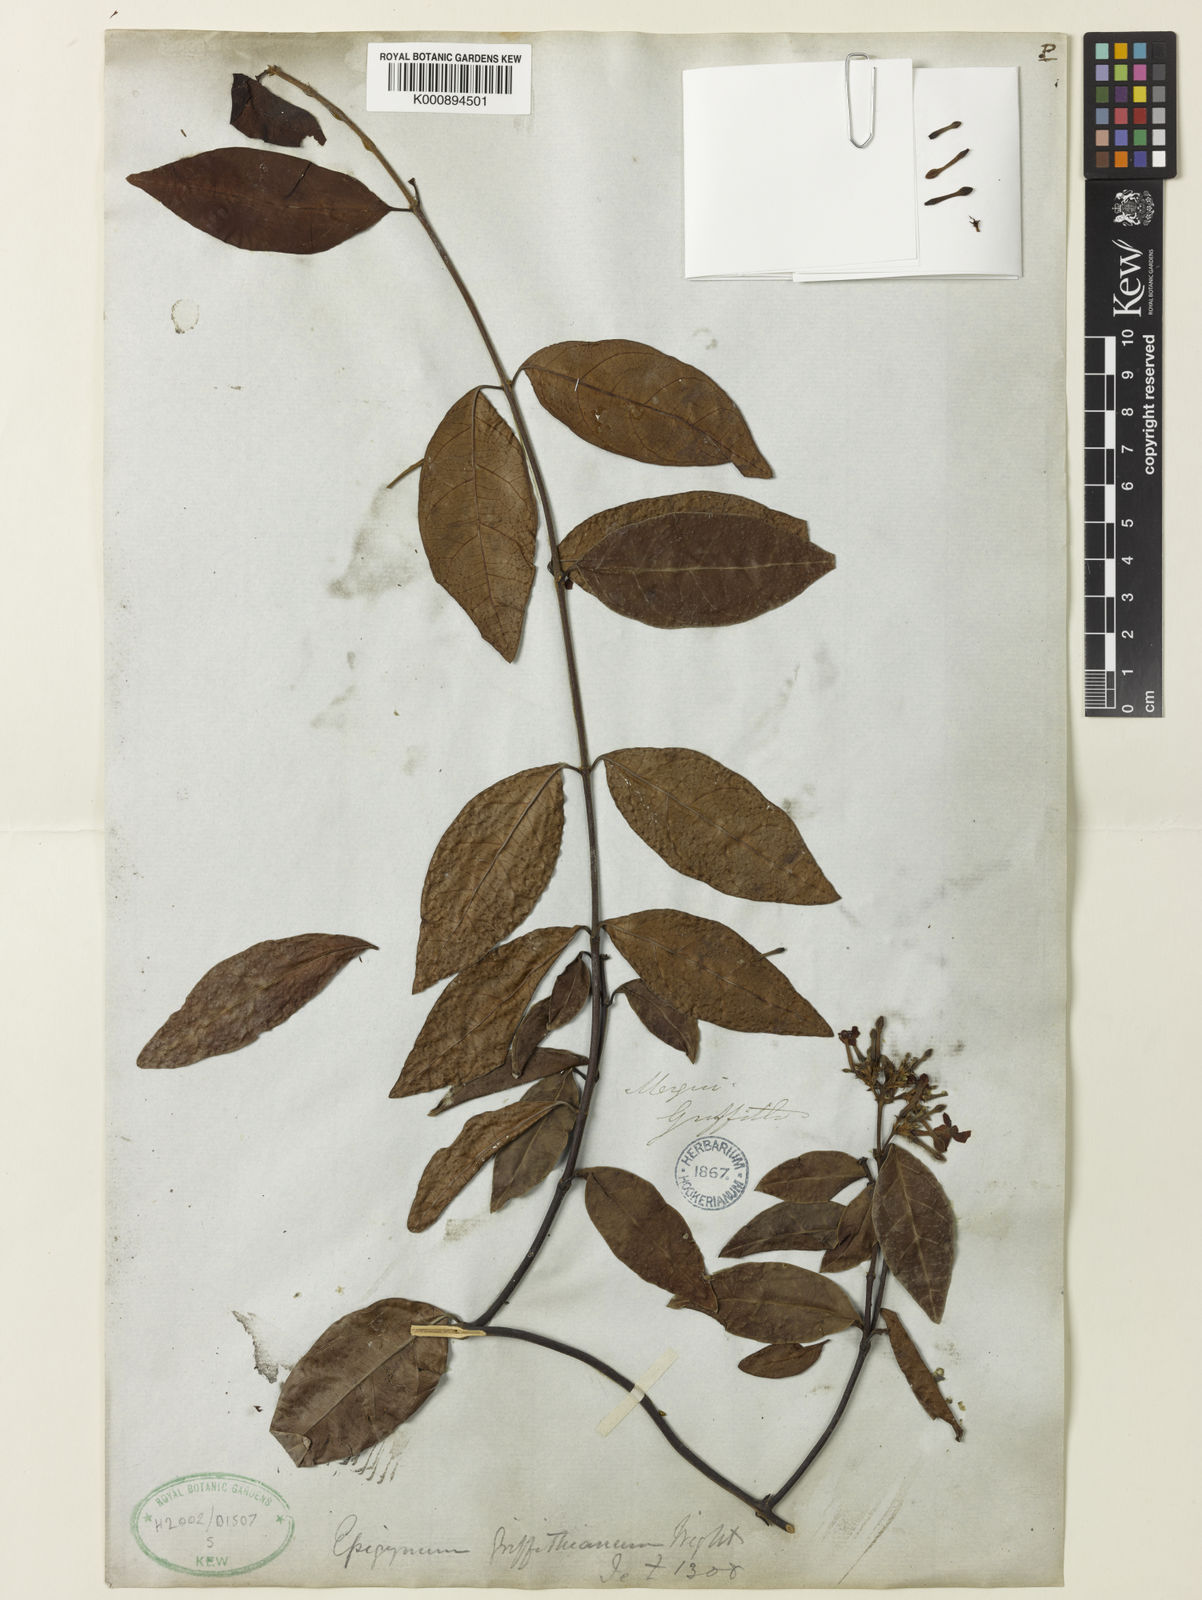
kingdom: Plantae
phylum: Tracheophyta
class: Magnoliopsida
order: Gentianales
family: Apocynaceae
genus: Epigynum
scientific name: Epigynum griffithianum
